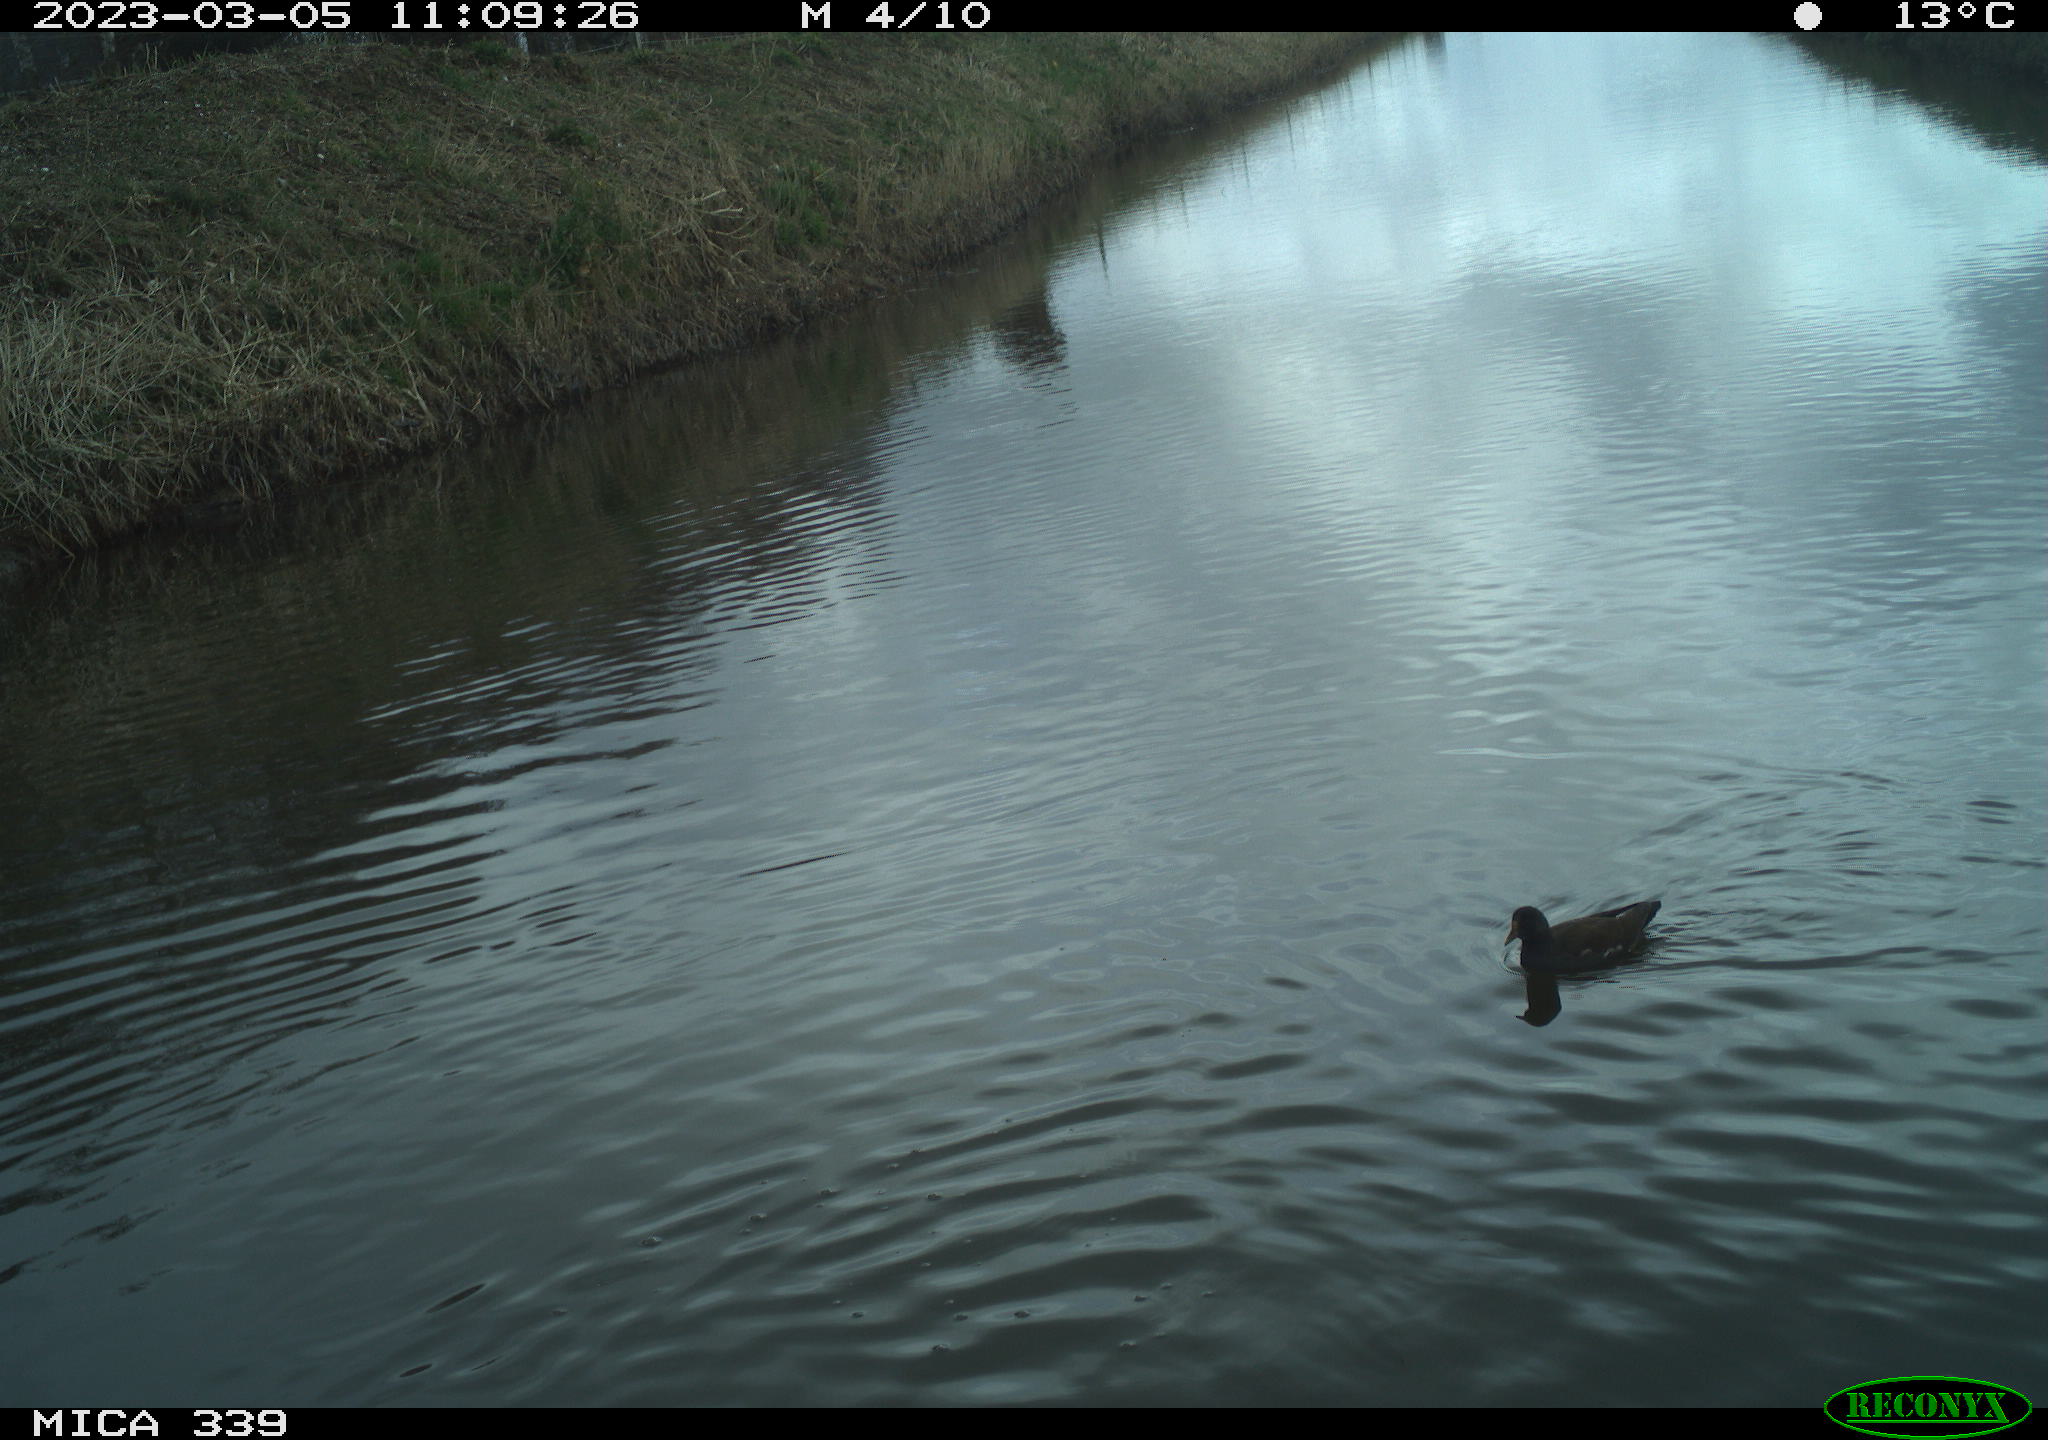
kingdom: Animalia
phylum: Chordata
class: Aves
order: Gruiformes
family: Rallidae
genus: Gallinula
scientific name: Gallinula chloropus
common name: Common moorhen
